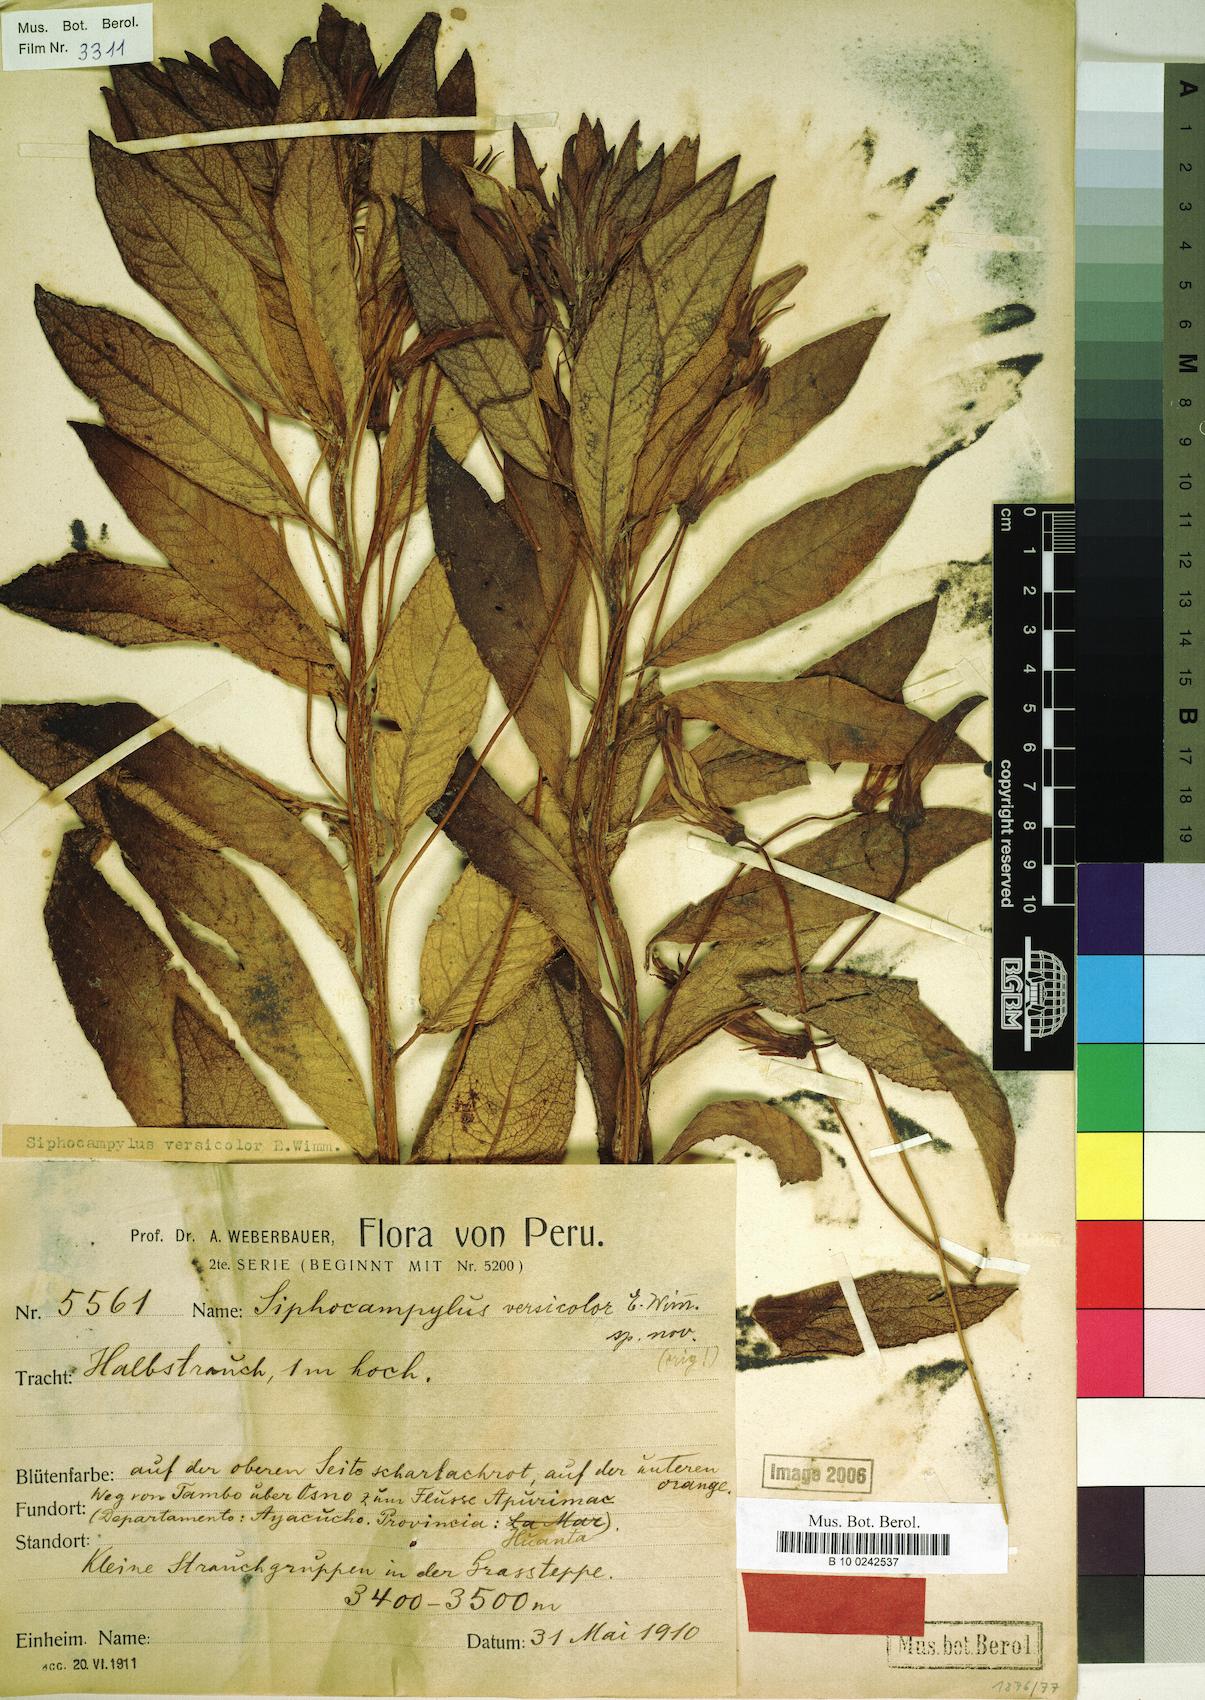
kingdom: Plantae
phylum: Tracheophyta
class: Magnoliopsida
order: Asterales
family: Campanulaceae
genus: Siphocampylus
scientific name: Siphocampylus versicolor
